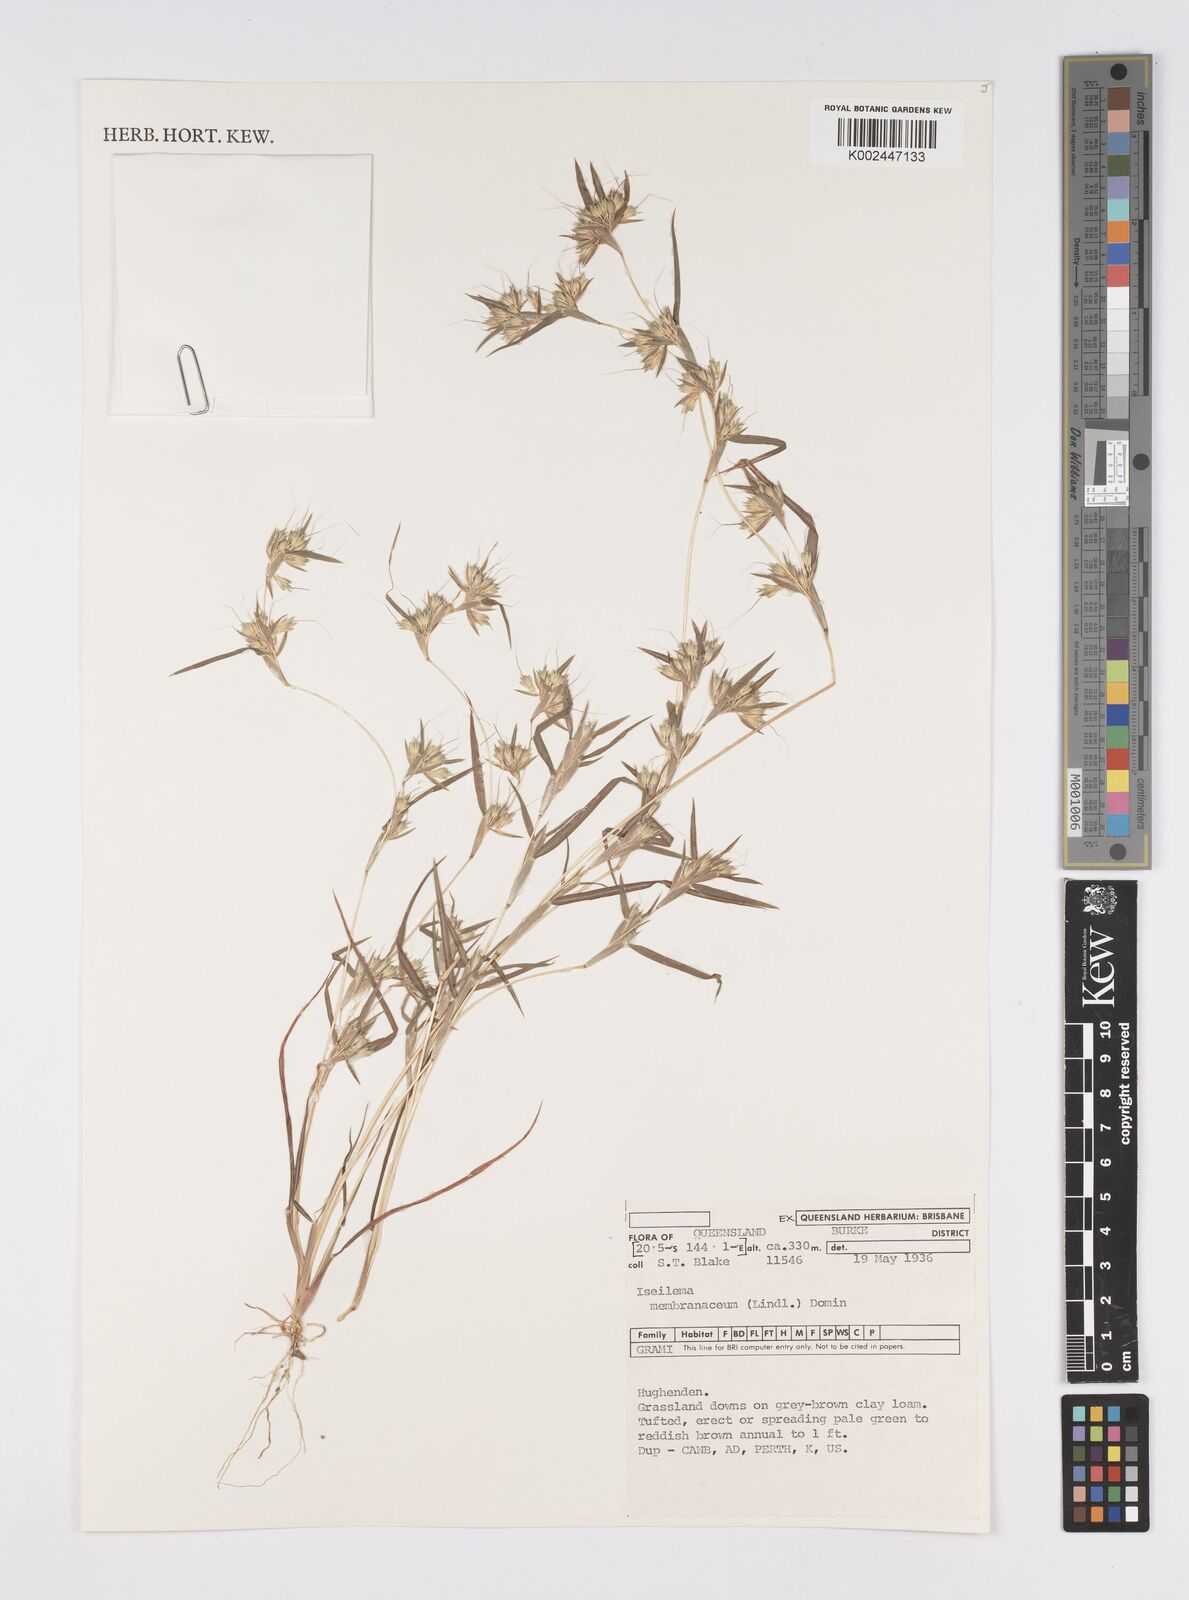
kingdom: Plantae
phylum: Tracheophyta
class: Liliopsida
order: Poales
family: Poaceae
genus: Iseilema
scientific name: Iseilema membranaceum
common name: Small flinders grass
